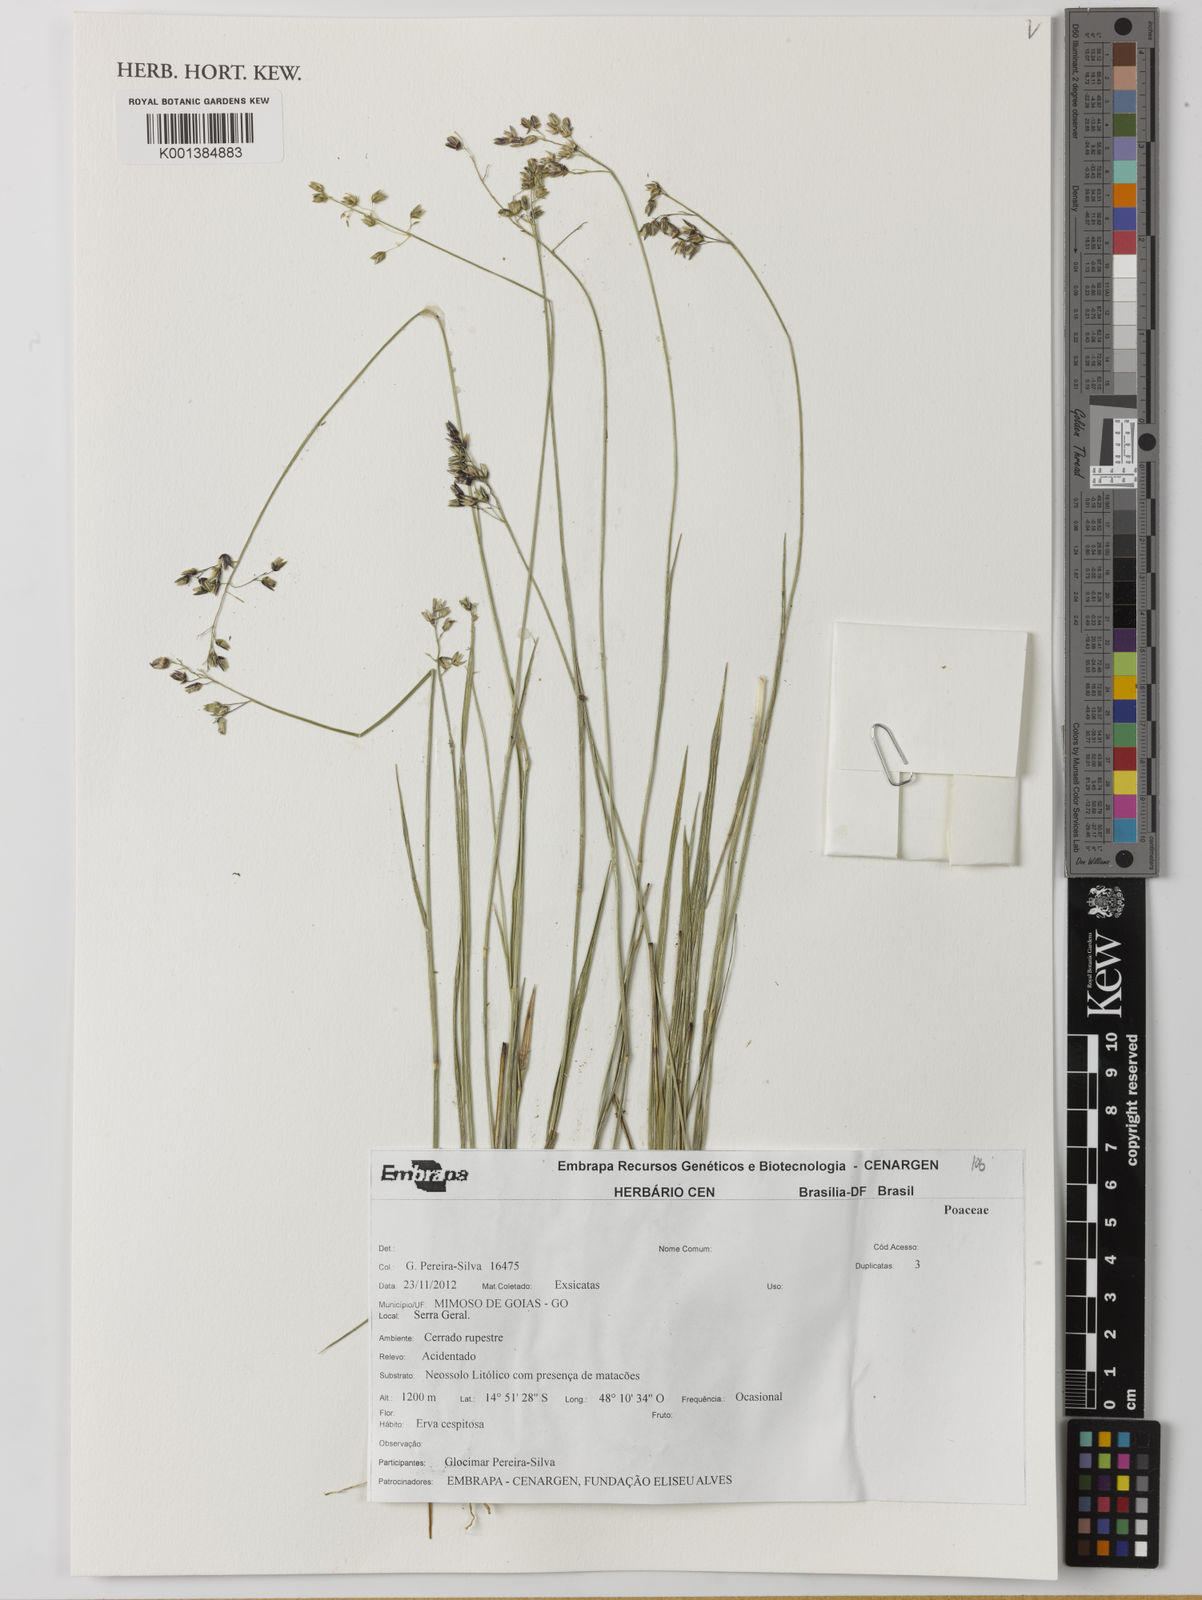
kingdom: Plantae
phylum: Tracheophyta
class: Liliopsida
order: Poales
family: Poaceae
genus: Otachyrium
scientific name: Otachyrium grandiflorum
